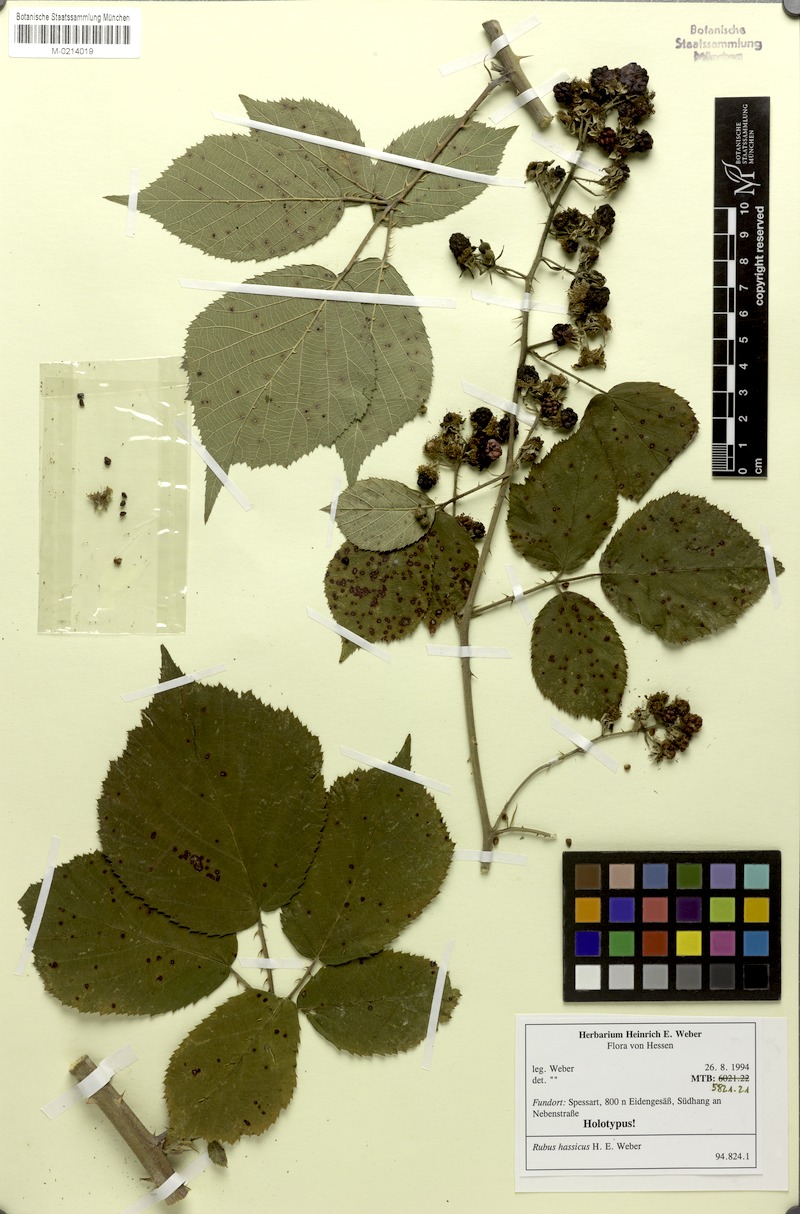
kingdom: Plantae
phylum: Tracheophyta
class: Magnoliopsida
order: Rosales
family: Rosaceae
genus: Rubus
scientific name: Rubus hassicus
